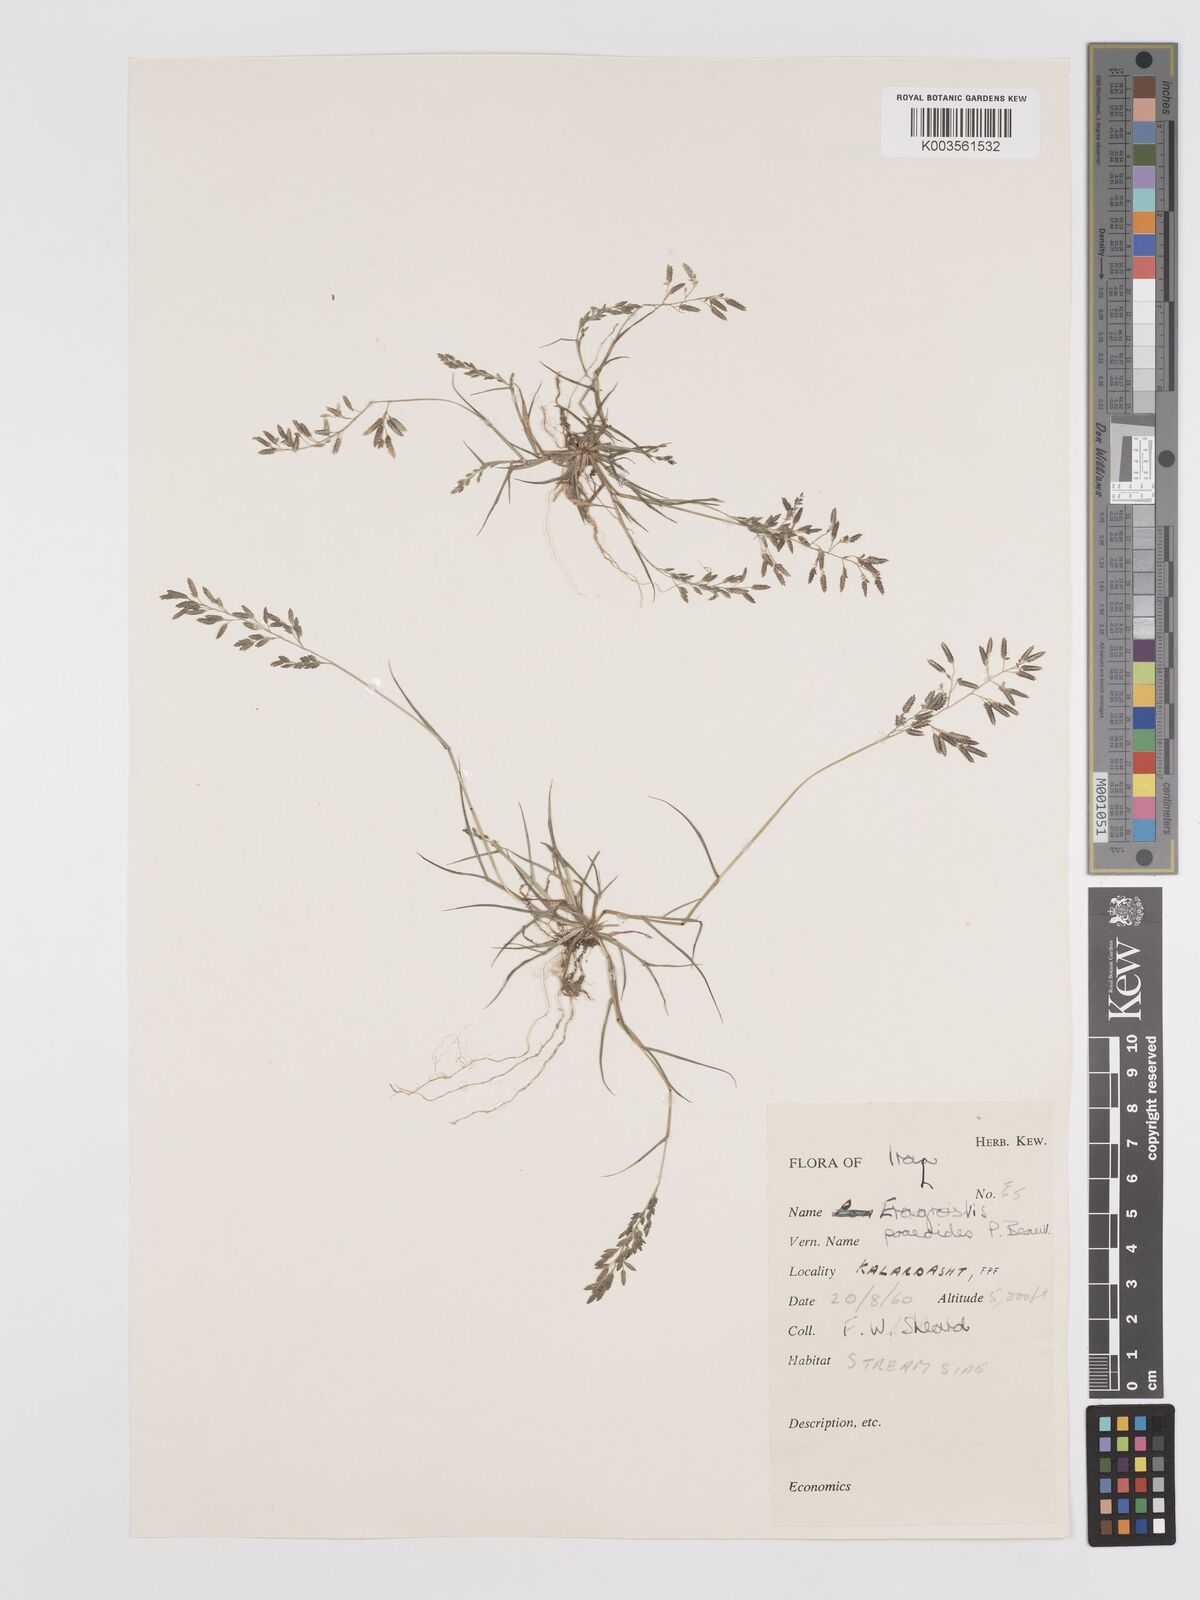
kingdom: Plantae
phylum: Tracheophyta
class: Liliopsida
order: Poales
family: Poaceae
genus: Eragrostis
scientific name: Eragrostis minor
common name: Small love-grass
